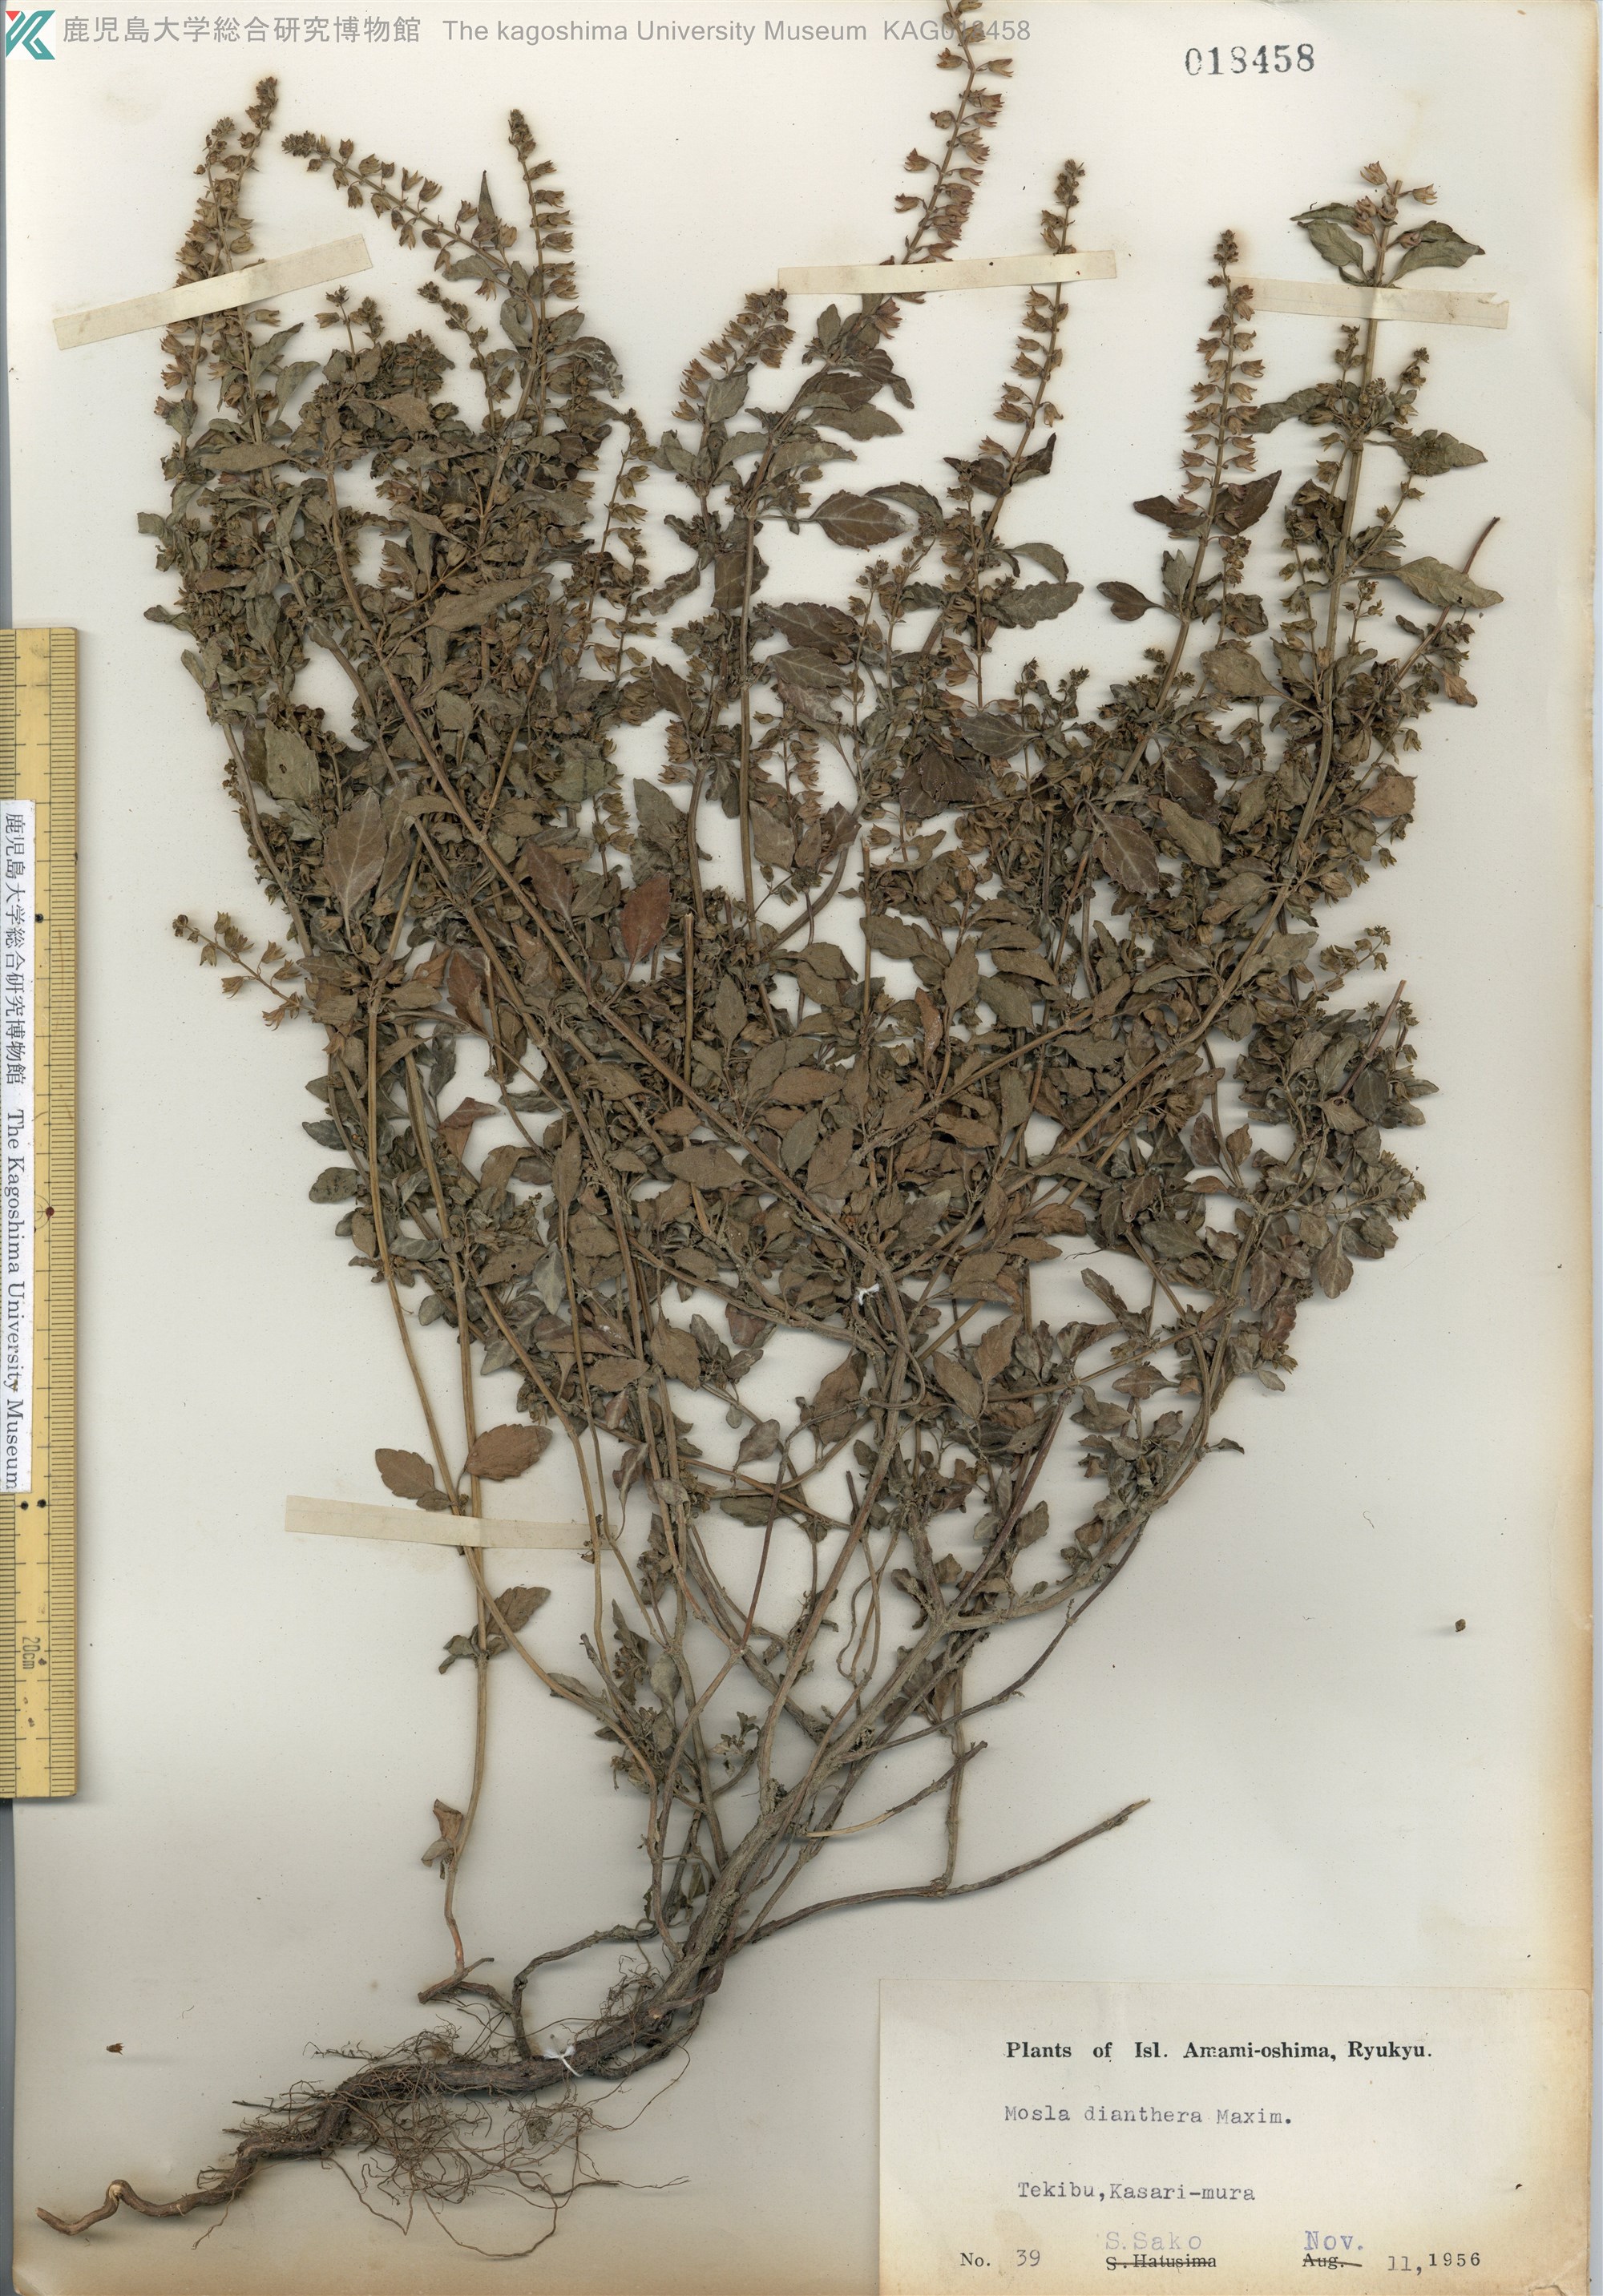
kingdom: Plantae
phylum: Tracheophyta
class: Magnoliopsida
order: Lamiales
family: Lamiaceae
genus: Mosla
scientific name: Mosla dianthera
